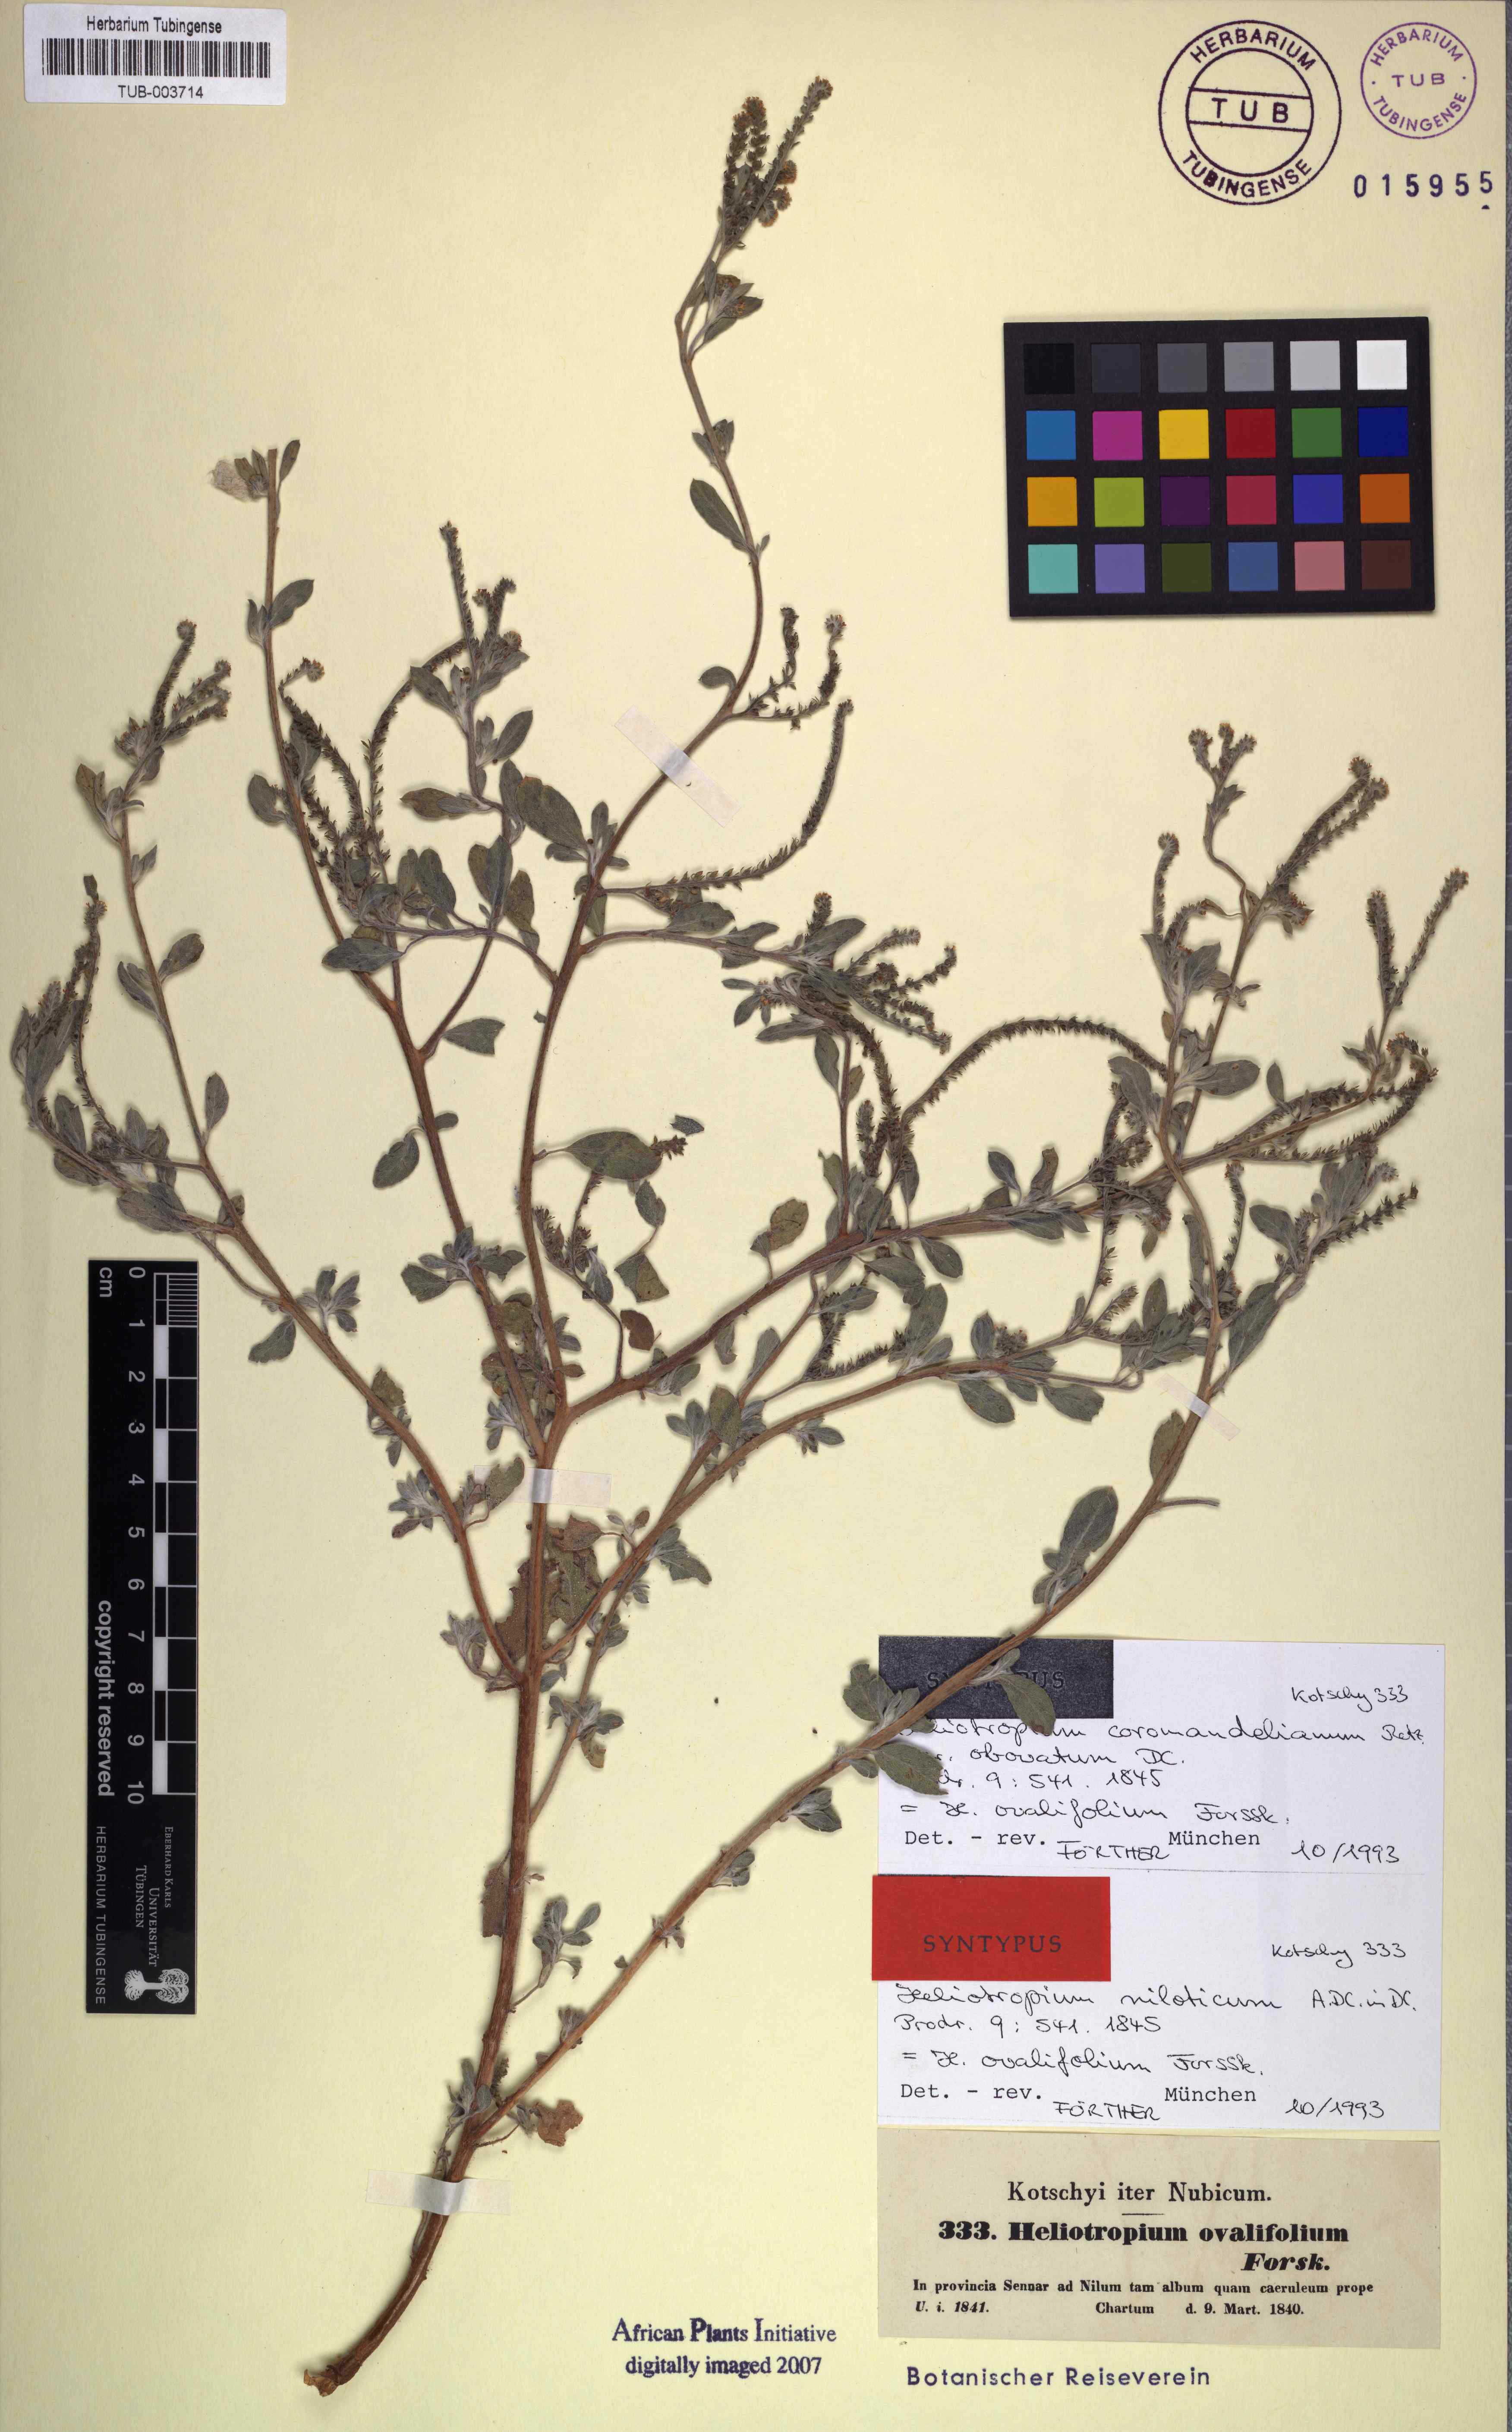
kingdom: Plantae
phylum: Tracheophyta
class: Magnoliopsida
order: Boraginales
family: Heliotropiaceae
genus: Euploca
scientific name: Euploca ovalifolia
